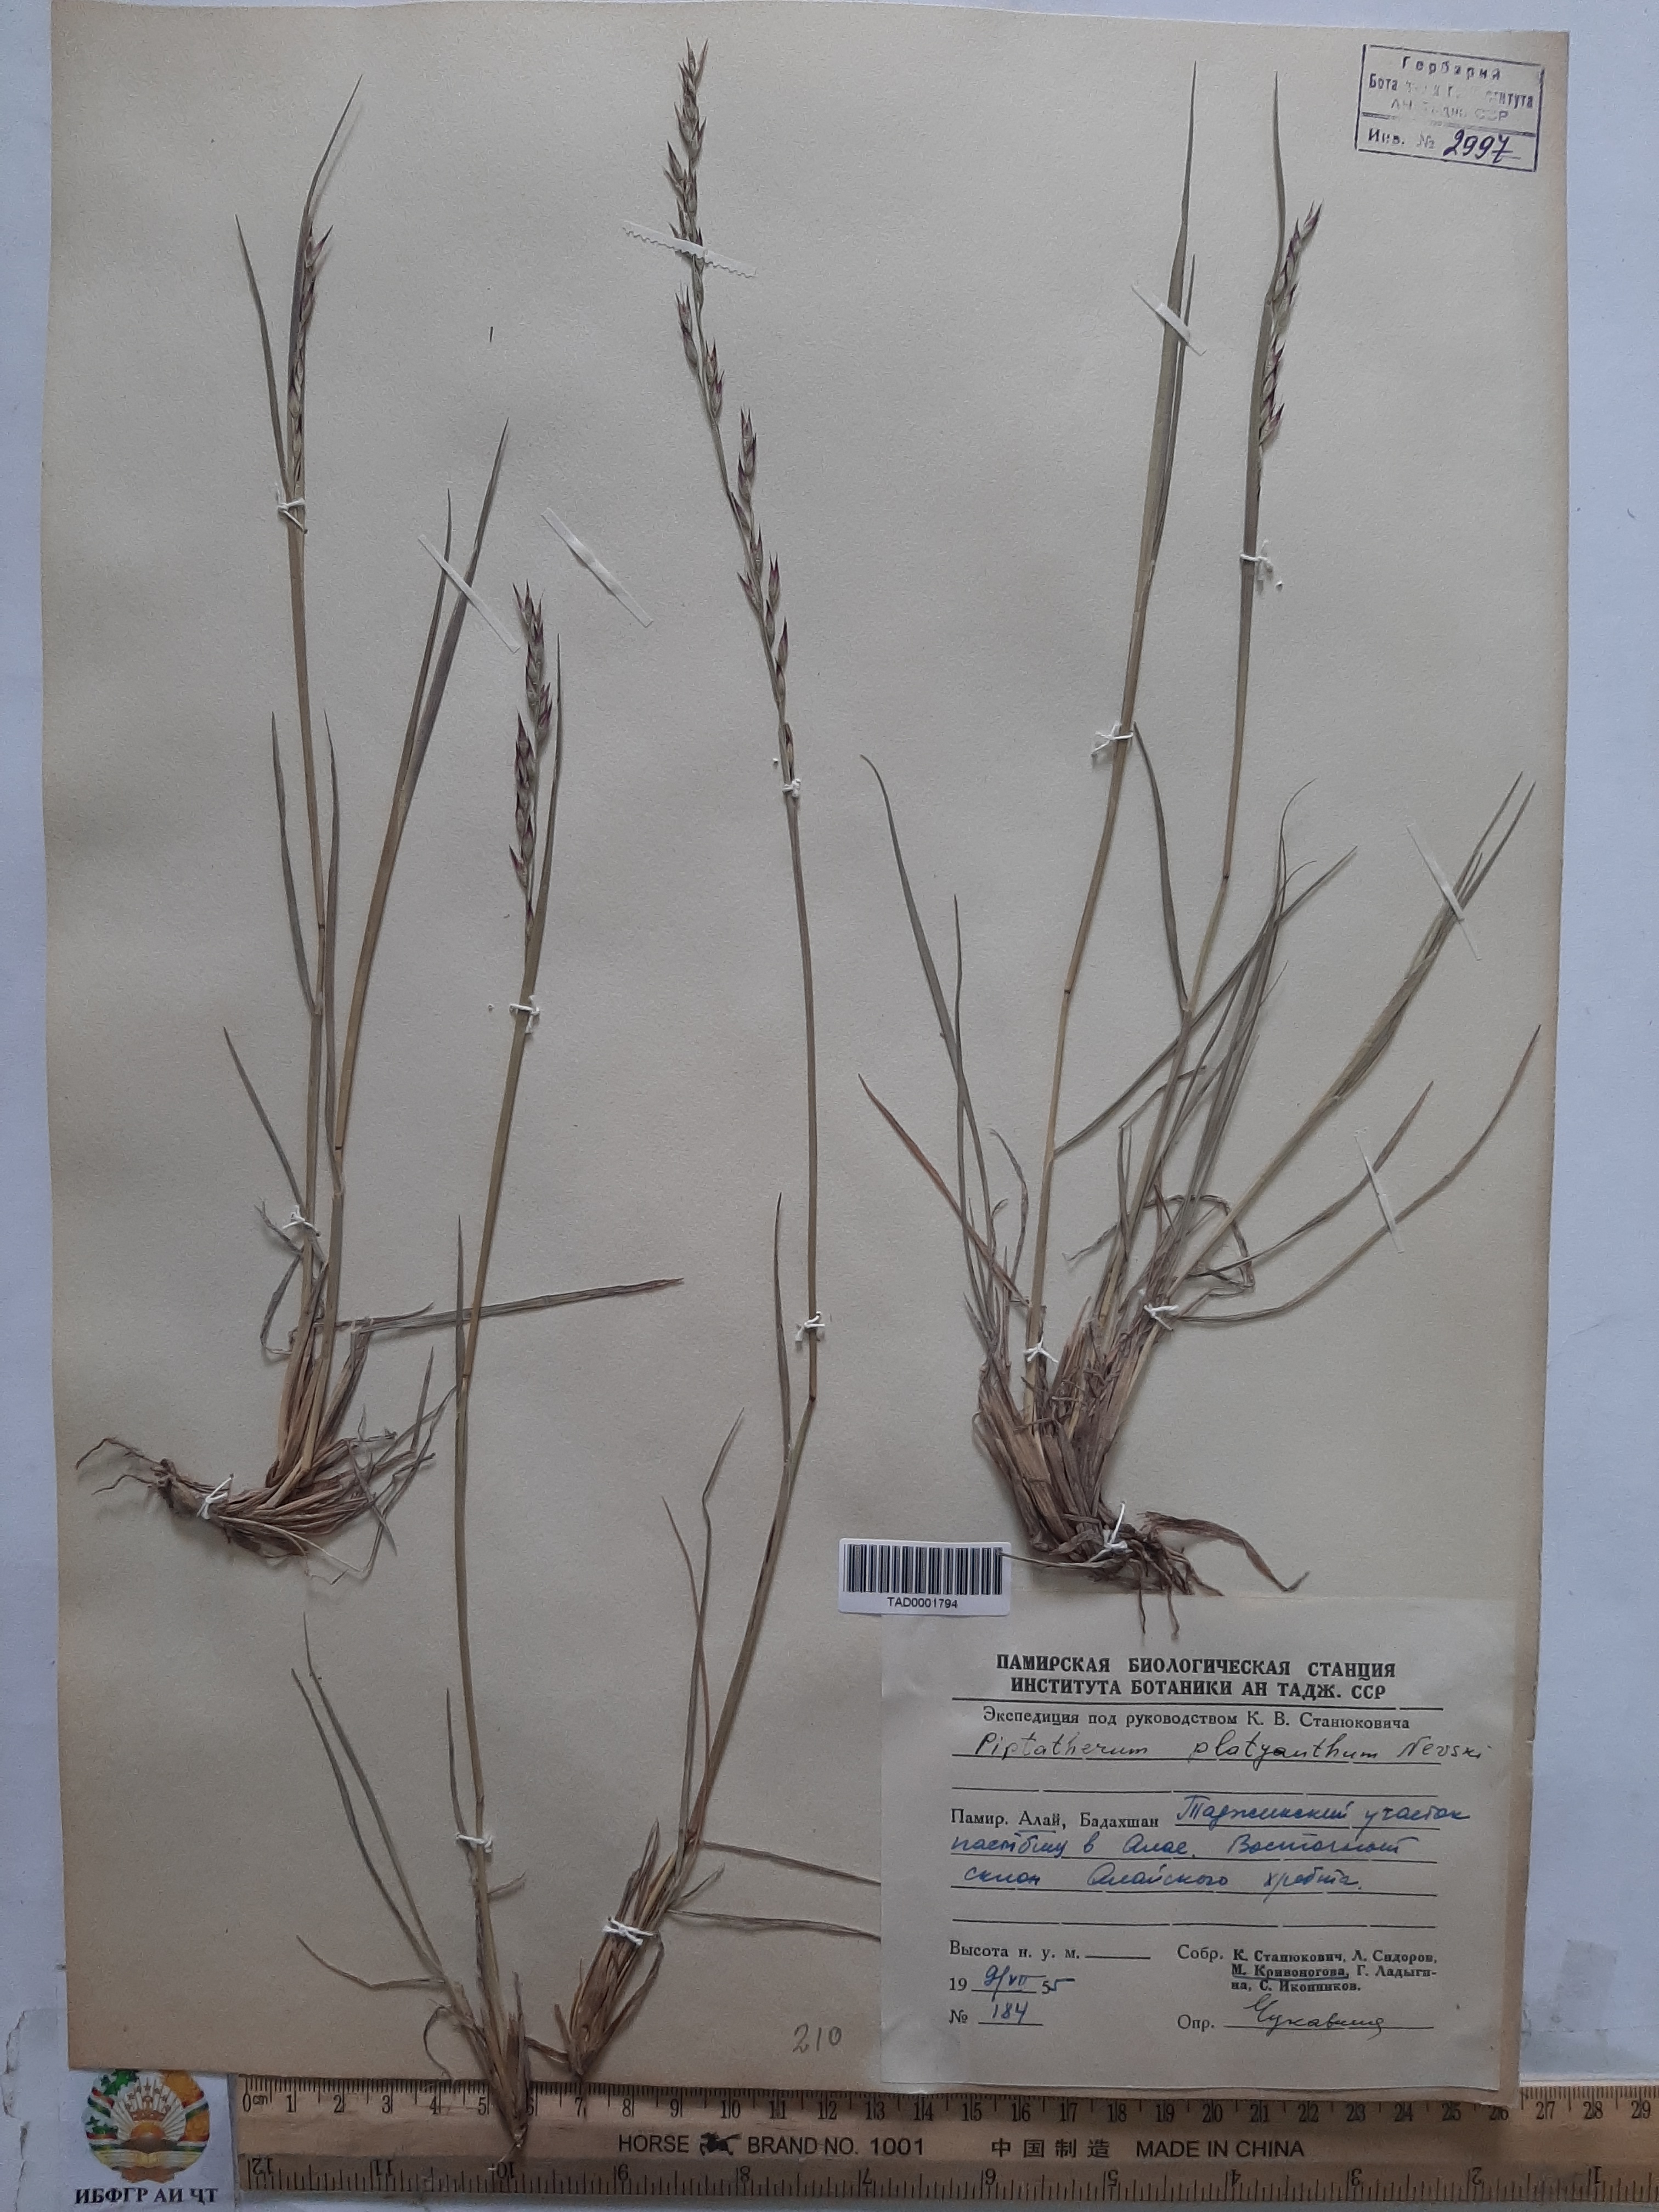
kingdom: Plantae
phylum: Tracheophyta
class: Liliopsida
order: Poales
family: Poaceae
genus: Piptatherum
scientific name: Piptatherum platyanthum
